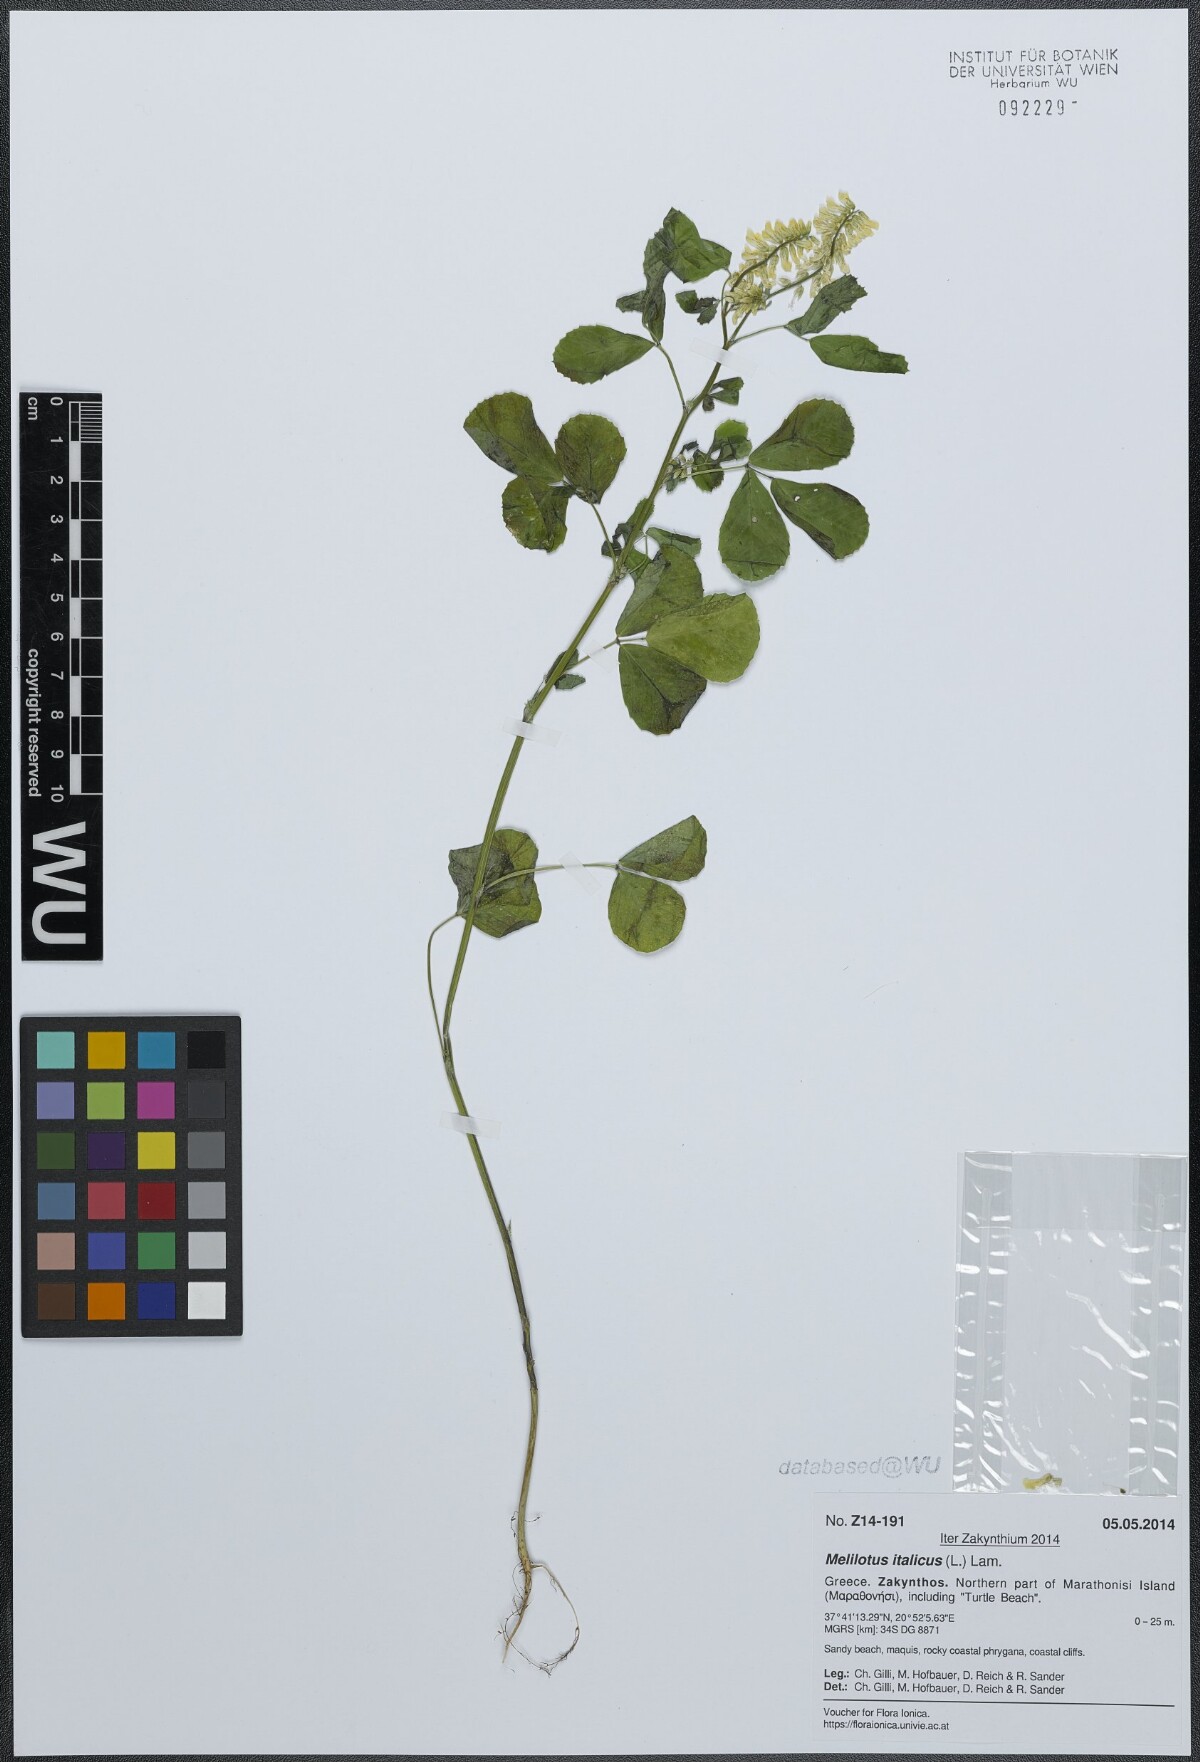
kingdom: Plantae
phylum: Tracheophyta
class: Magnoliopsida
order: Fabales
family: Fabaceae
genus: Melilotus
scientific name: Melilotus italicus
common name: Italian melilot
